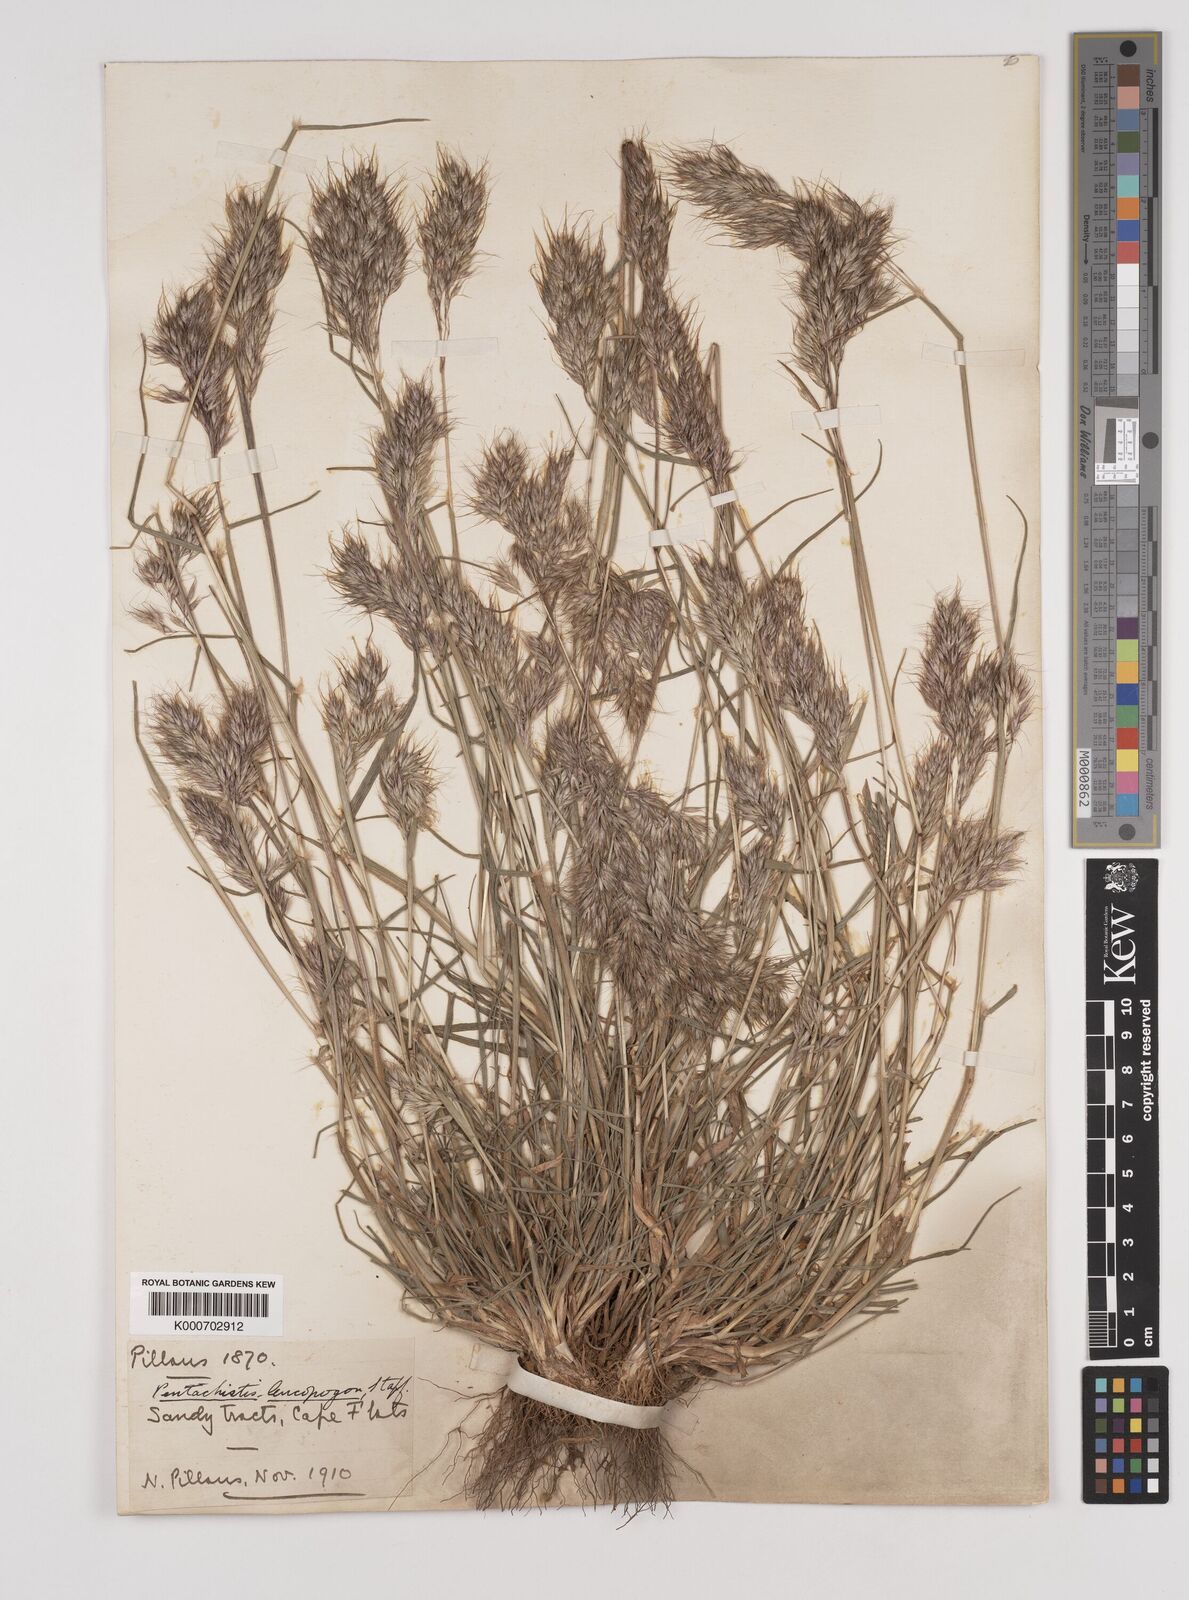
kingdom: Plantae
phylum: Tracheophyta
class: Liliopsida
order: Poales
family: Poaceae
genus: Pentameris
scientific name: Pentameris barbata
